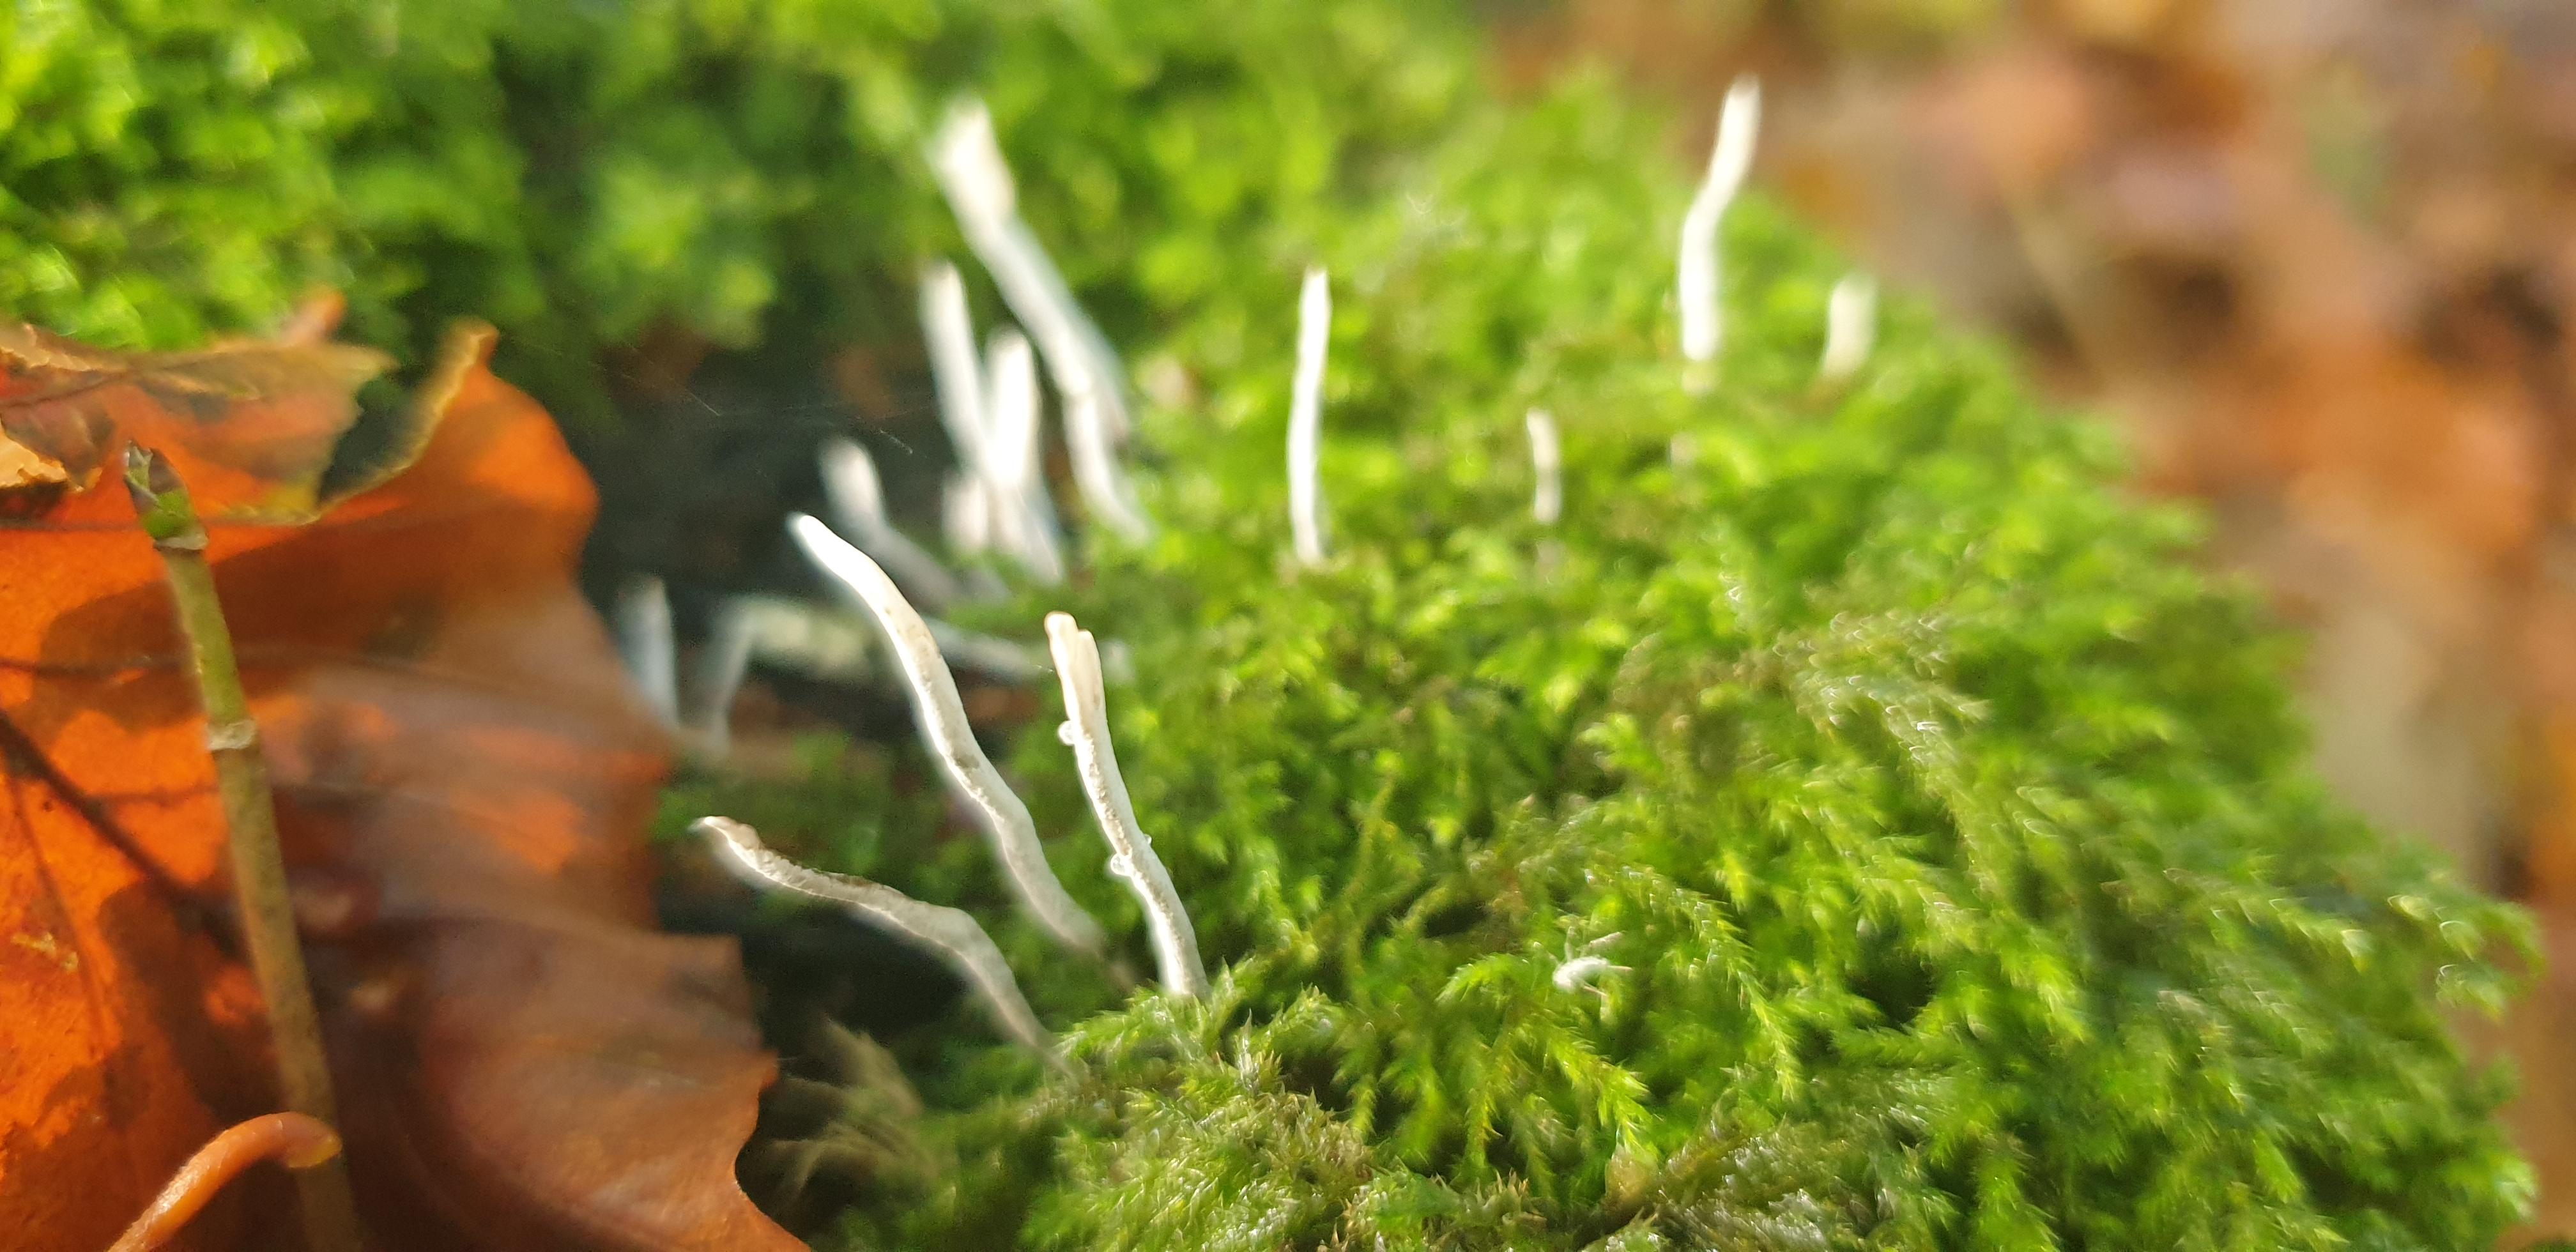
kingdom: Fungi
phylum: Ascomycota
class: Sordariomycetes
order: Xylariales
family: Xylariaceae
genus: Xylaria
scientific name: Xylaria hypoxylon
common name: grenet stødsvamp
